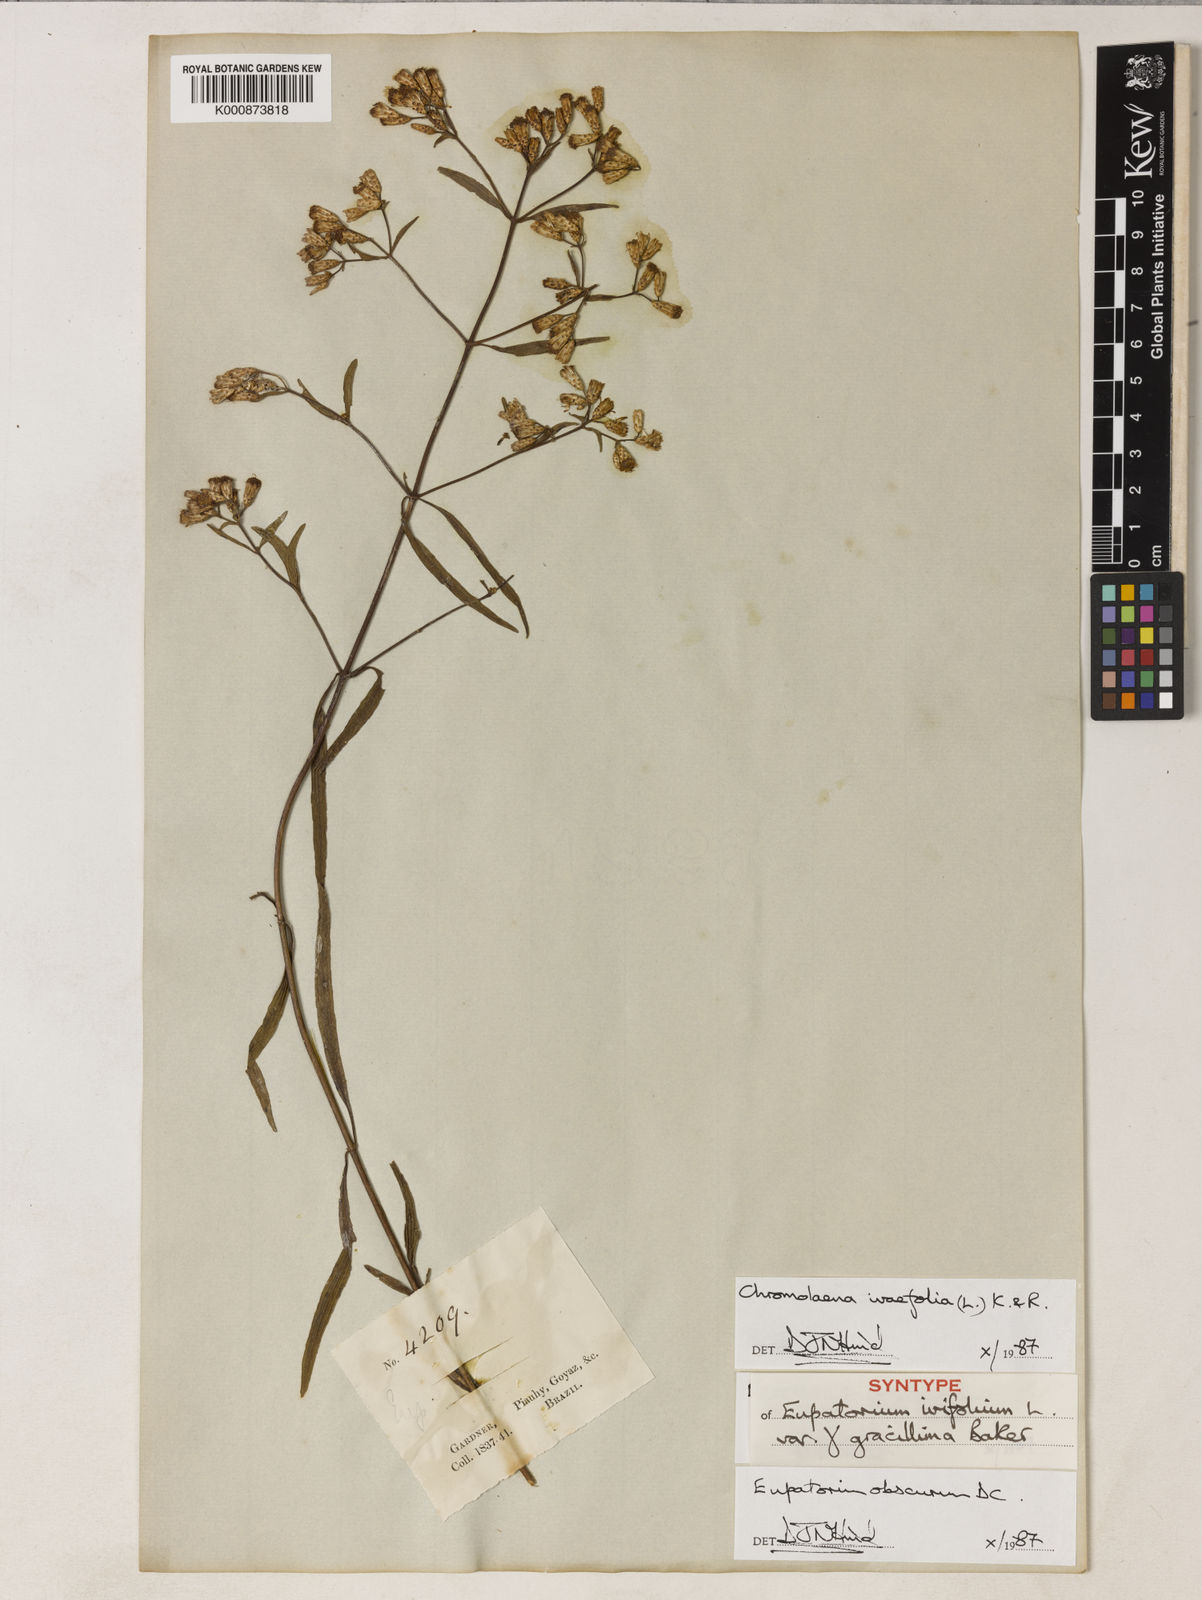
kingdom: Plantae
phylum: Tracheophyta
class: Magnoliopsida
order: Asterales
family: Asteraceae
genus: Chromolaena
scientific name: Chromolaena ivifolia
